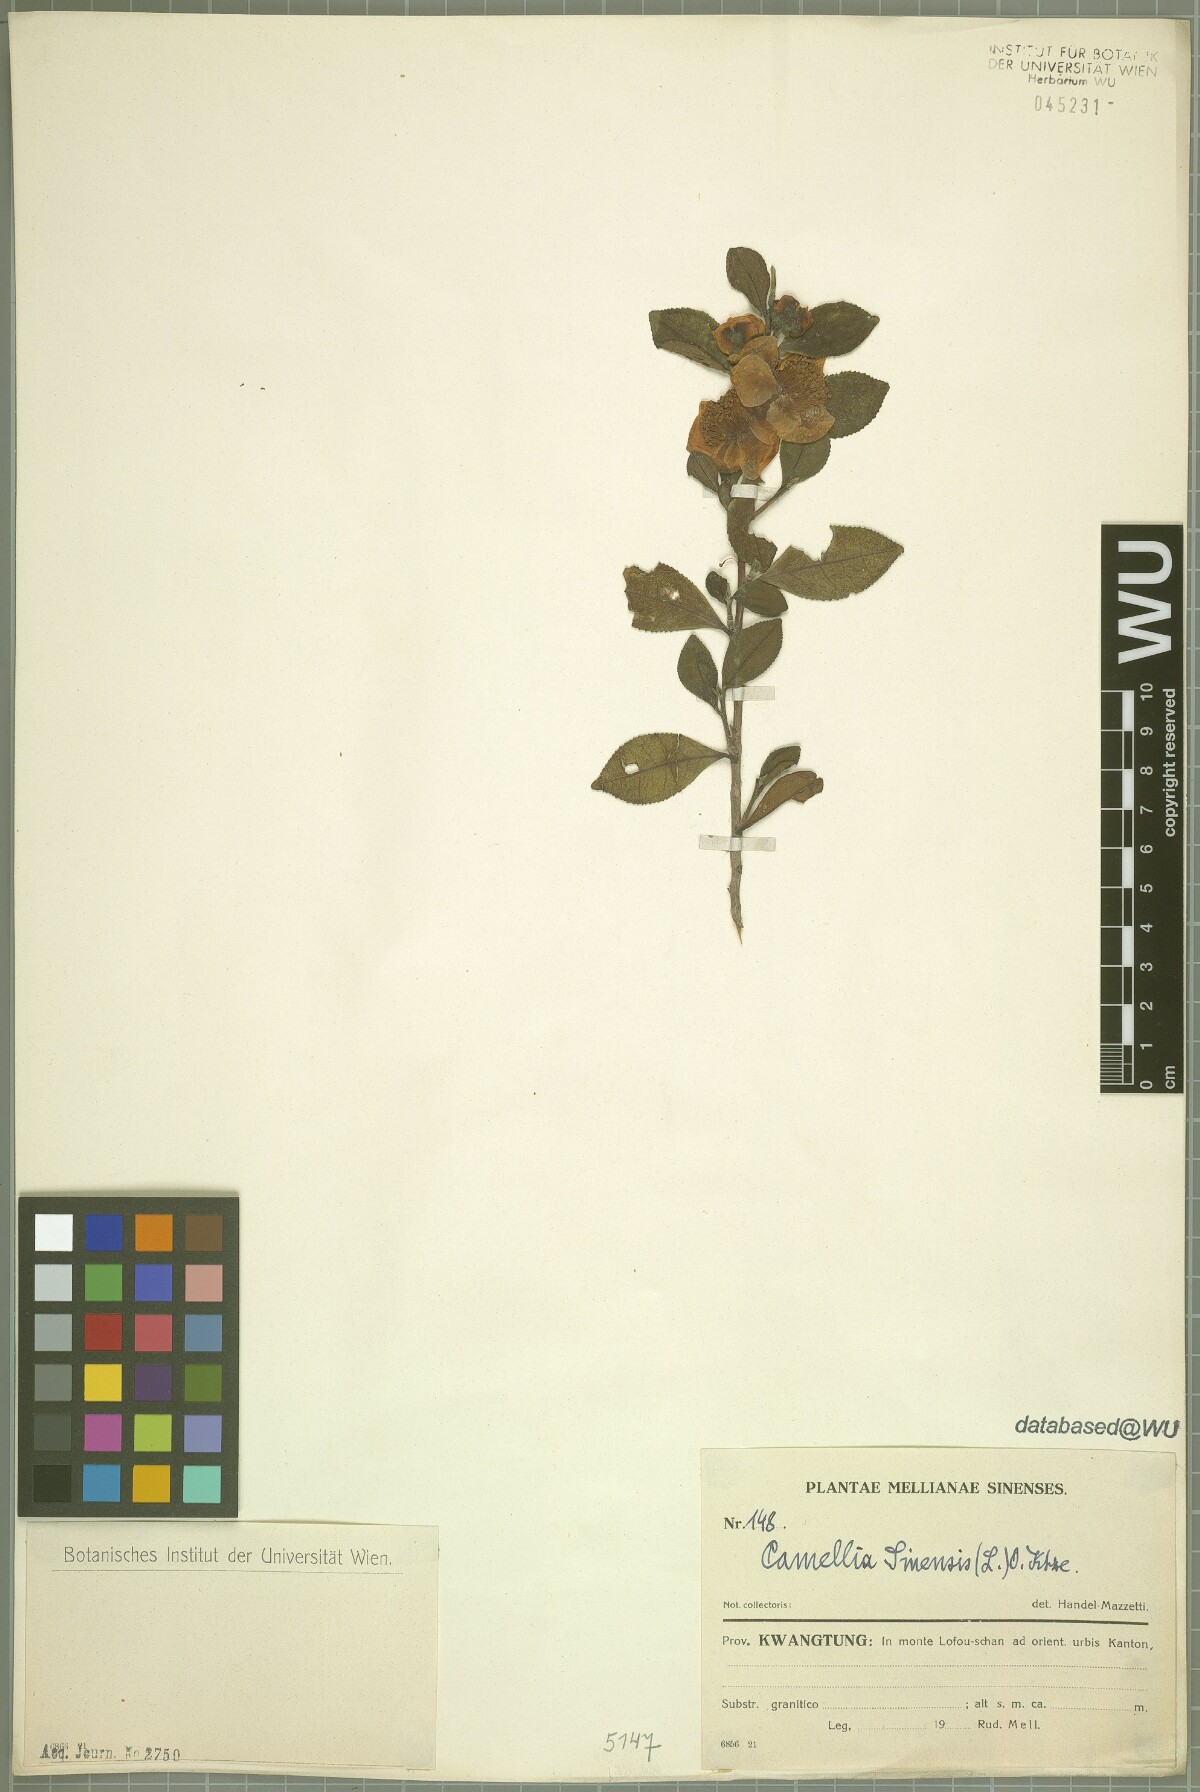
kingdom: Plantae
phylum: Tracheophyta
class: Magnoliopsida
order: Ericales
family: Theaceae
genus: Camellia
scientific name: Camellia sinensis
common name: Tea
